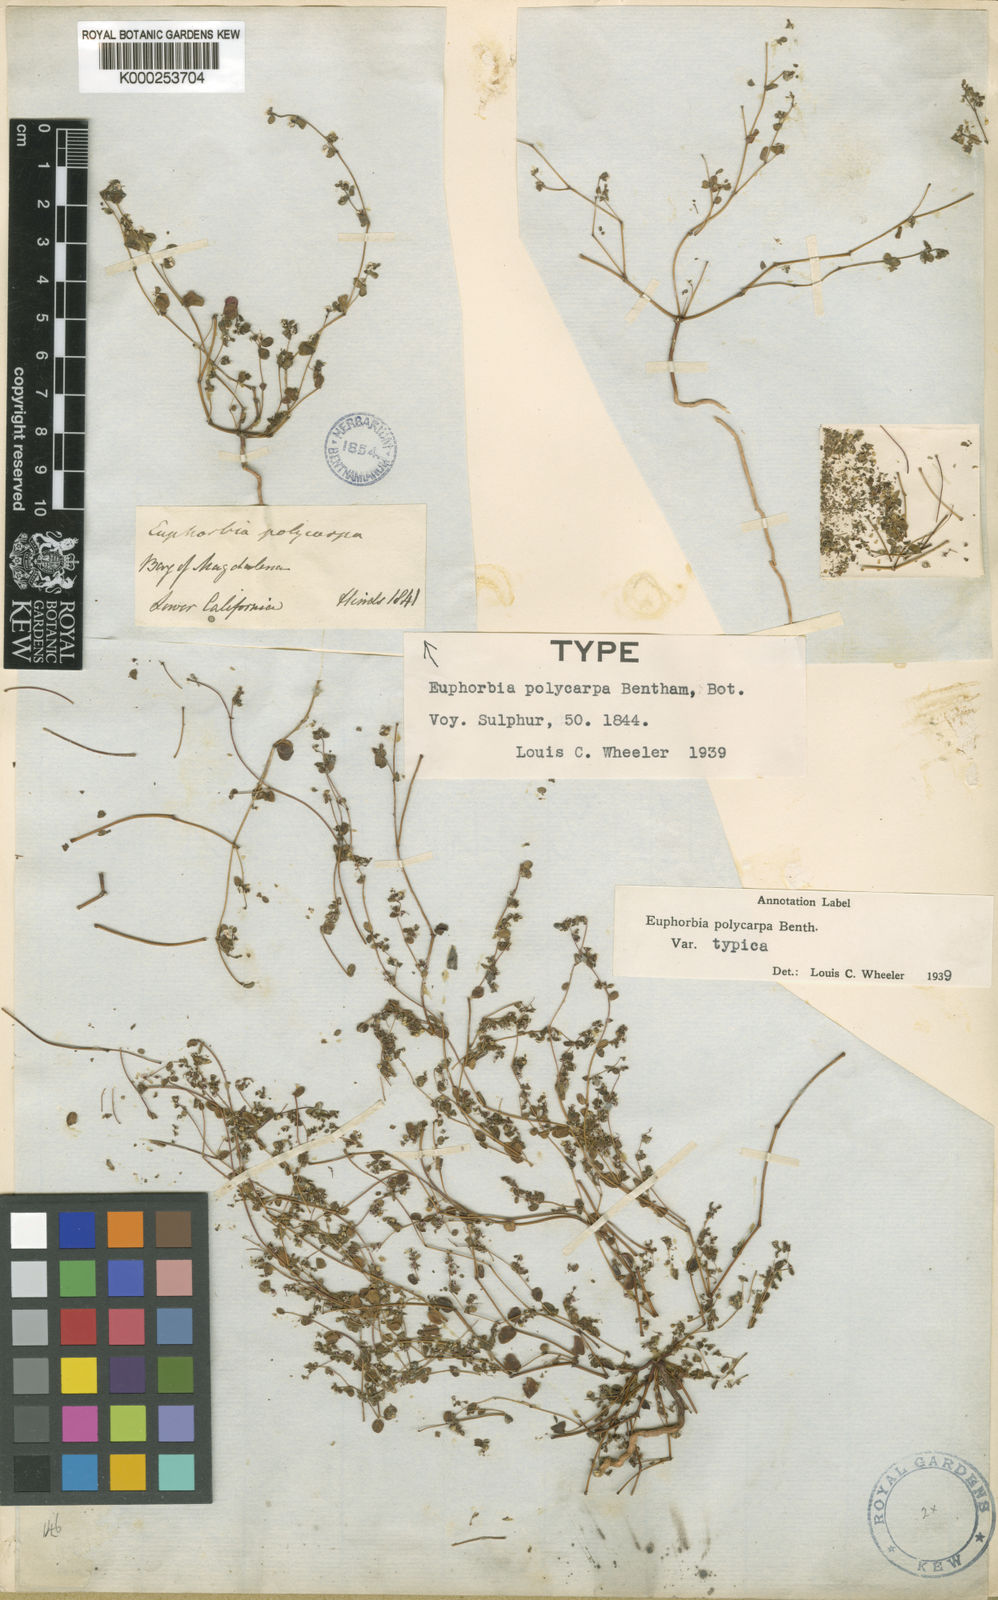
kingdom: Plantae
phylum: Tracheophyta
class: Magnoliopsida
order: Malpighiales
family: Euphorbiaceae
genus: Euphorbia
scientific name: Euphorbia polycarpa
